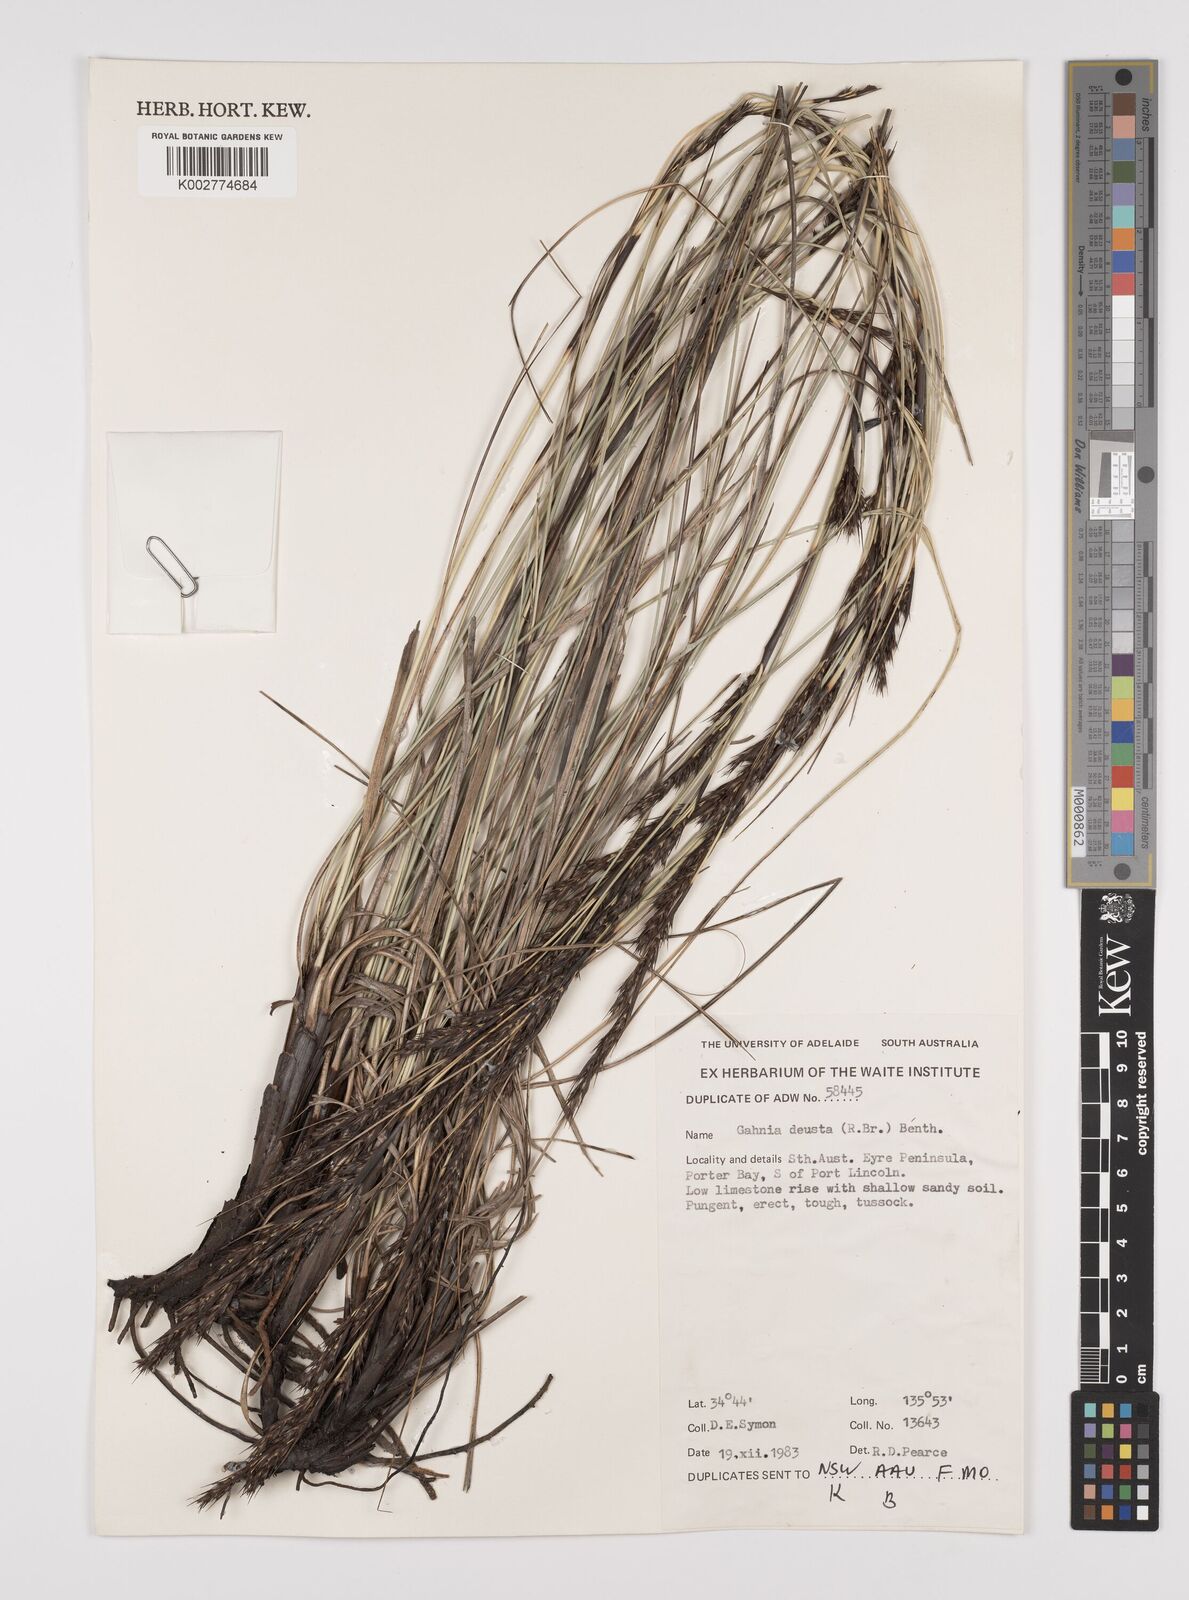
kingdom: Plantae
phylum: Tracheophyta
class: Liliopsida
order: Poales
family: Cyperaceae
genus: Gahnia
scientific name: Gahnia deusta
